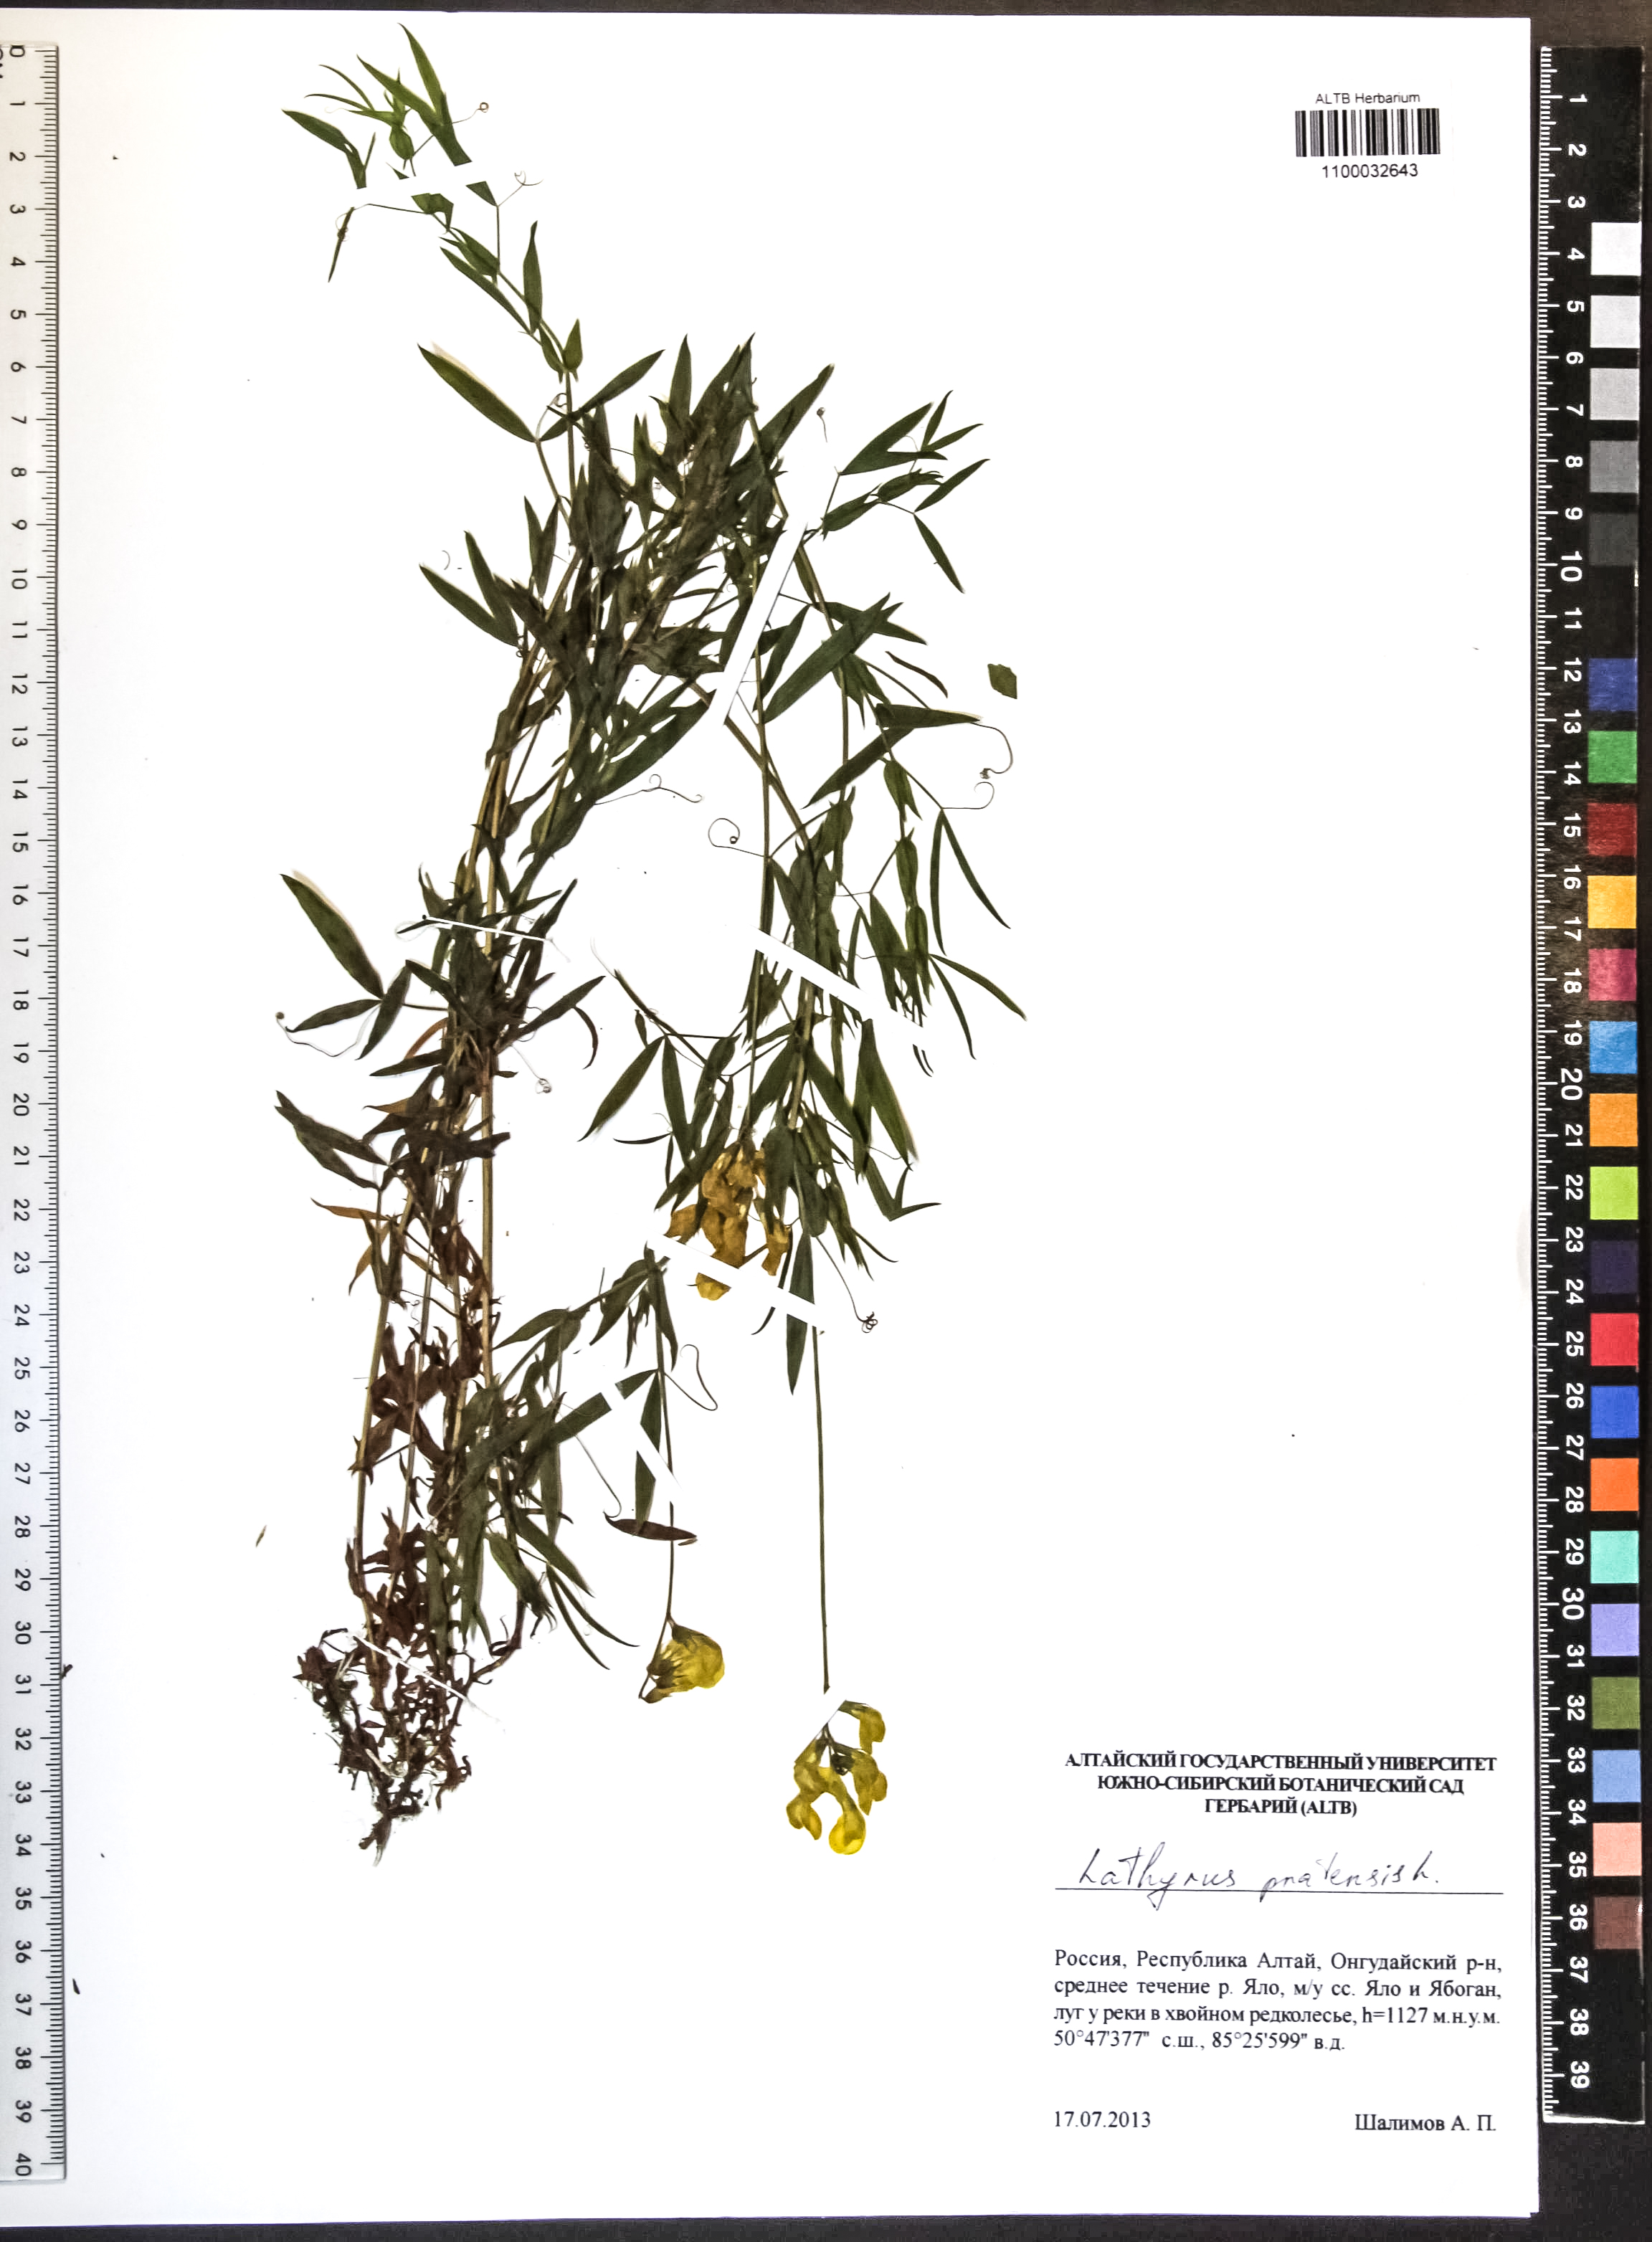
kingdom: Plantae
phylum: Tracheophyta
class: Magnoliopsida
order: Fabales
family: Fabaceae
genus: Lathyrus
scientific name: Lathyrus pratensis
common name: Meadow vetchling
